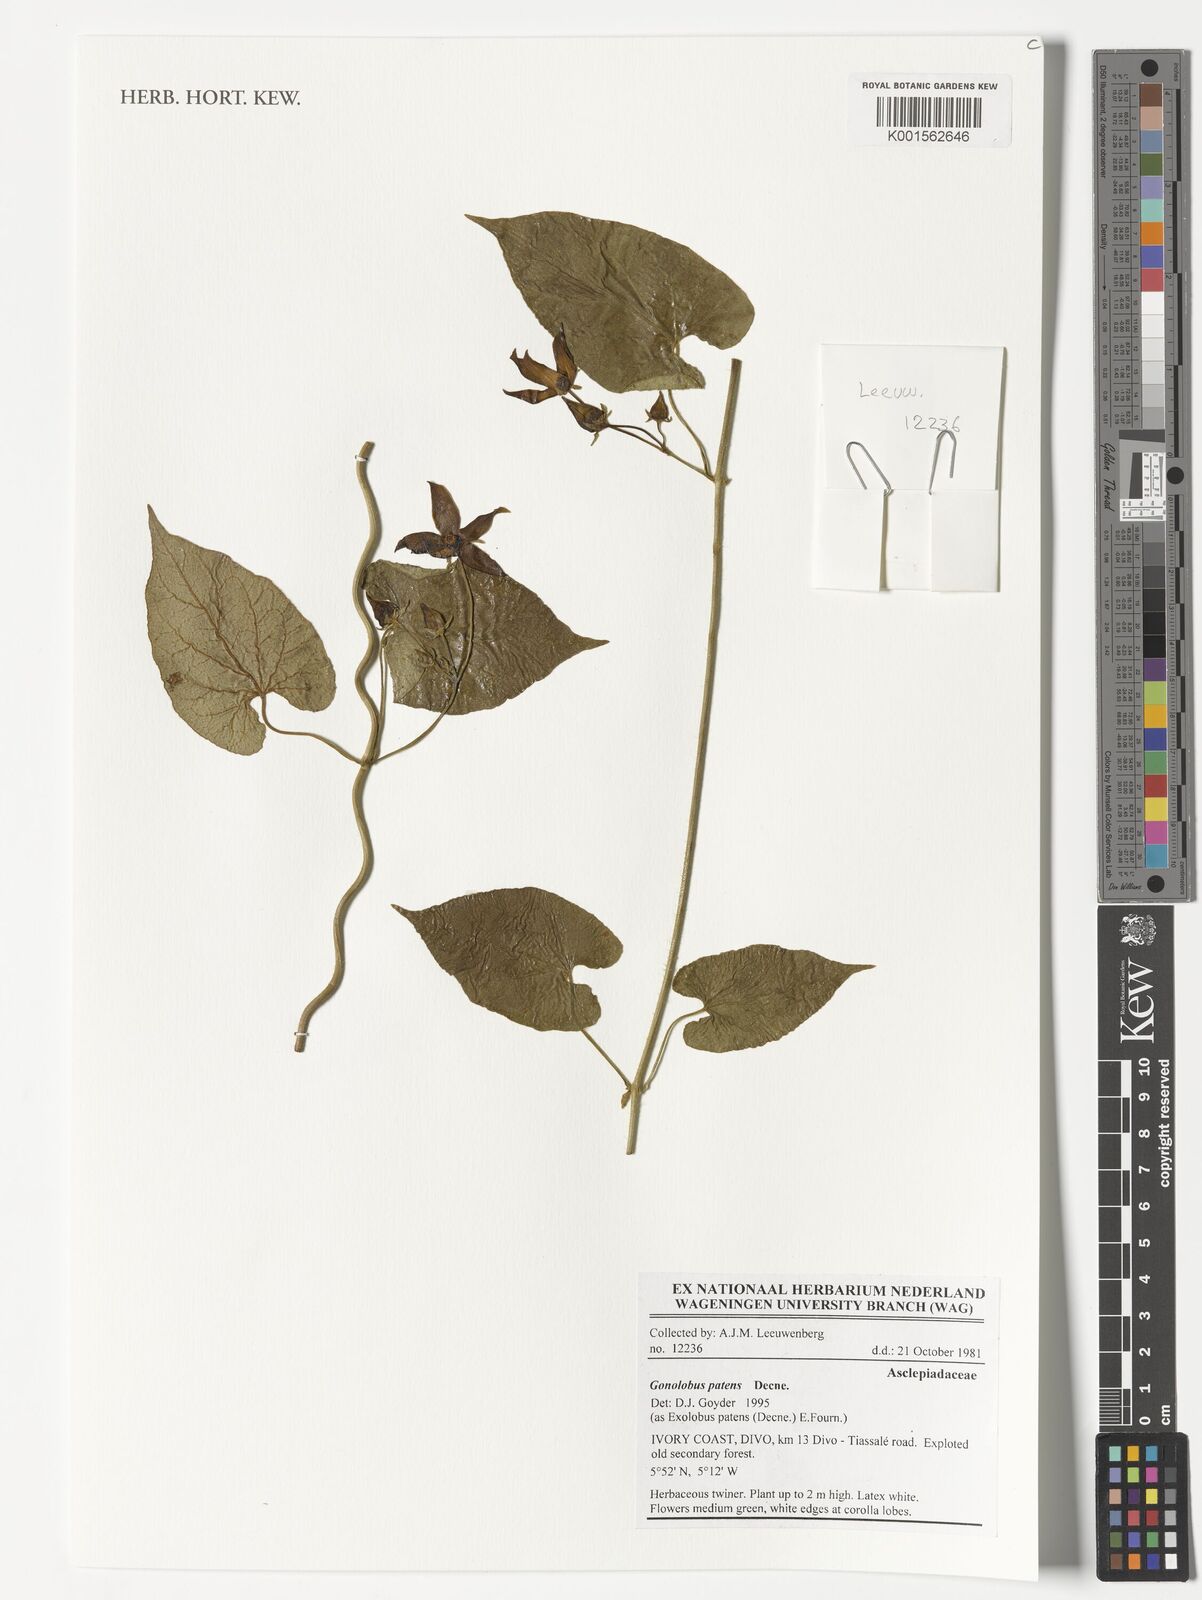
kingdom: Plantae
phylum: Tracheophyta
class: Magnoliopsida
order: Gentianales
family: Apocynaceae
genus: Gonolobus
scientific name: Gonolobus rostratus
